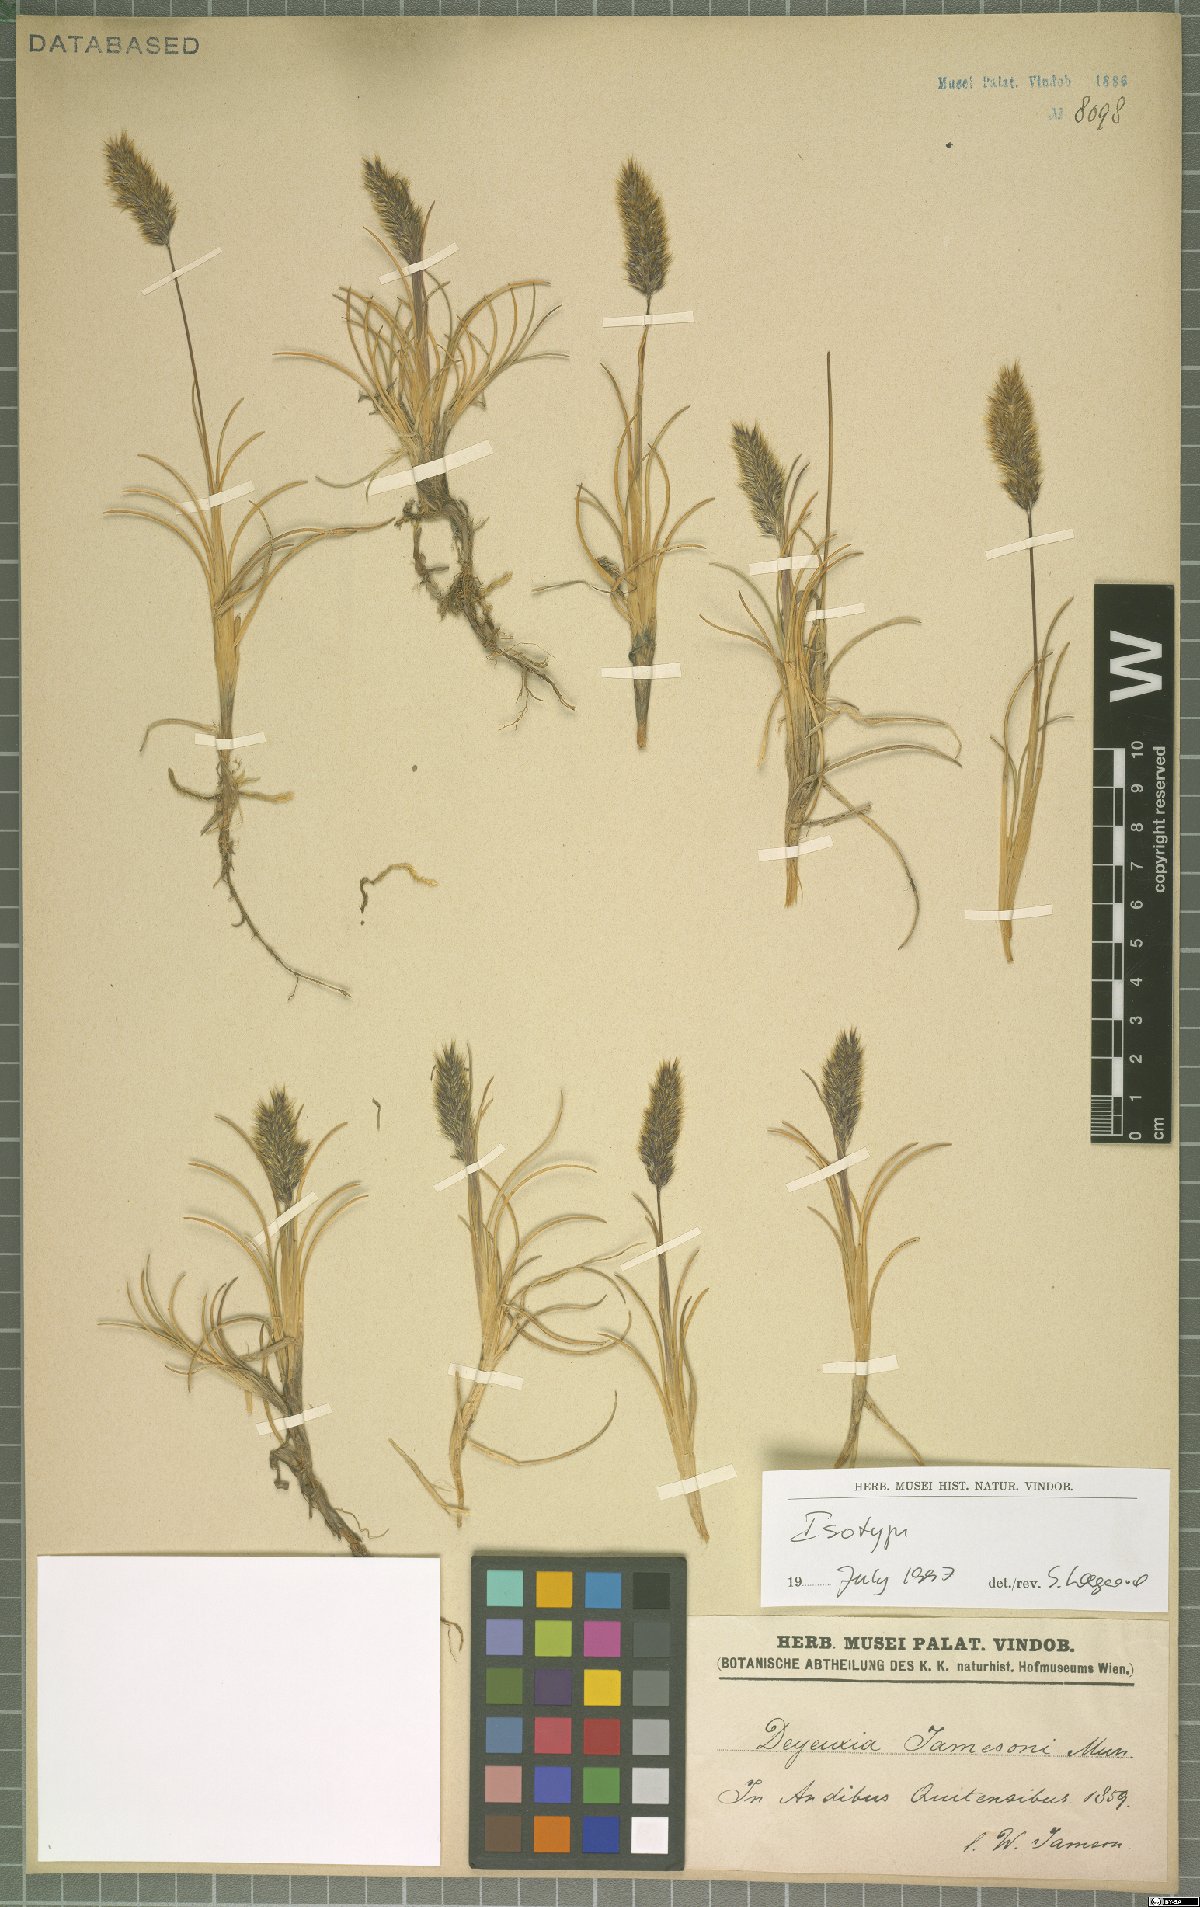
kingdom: Plantae
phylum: Tracheophyta
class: Liliopsida
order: Poales
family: Poaceae
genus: Cinnagrostis
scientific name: Cinnagrostis jamesonii
